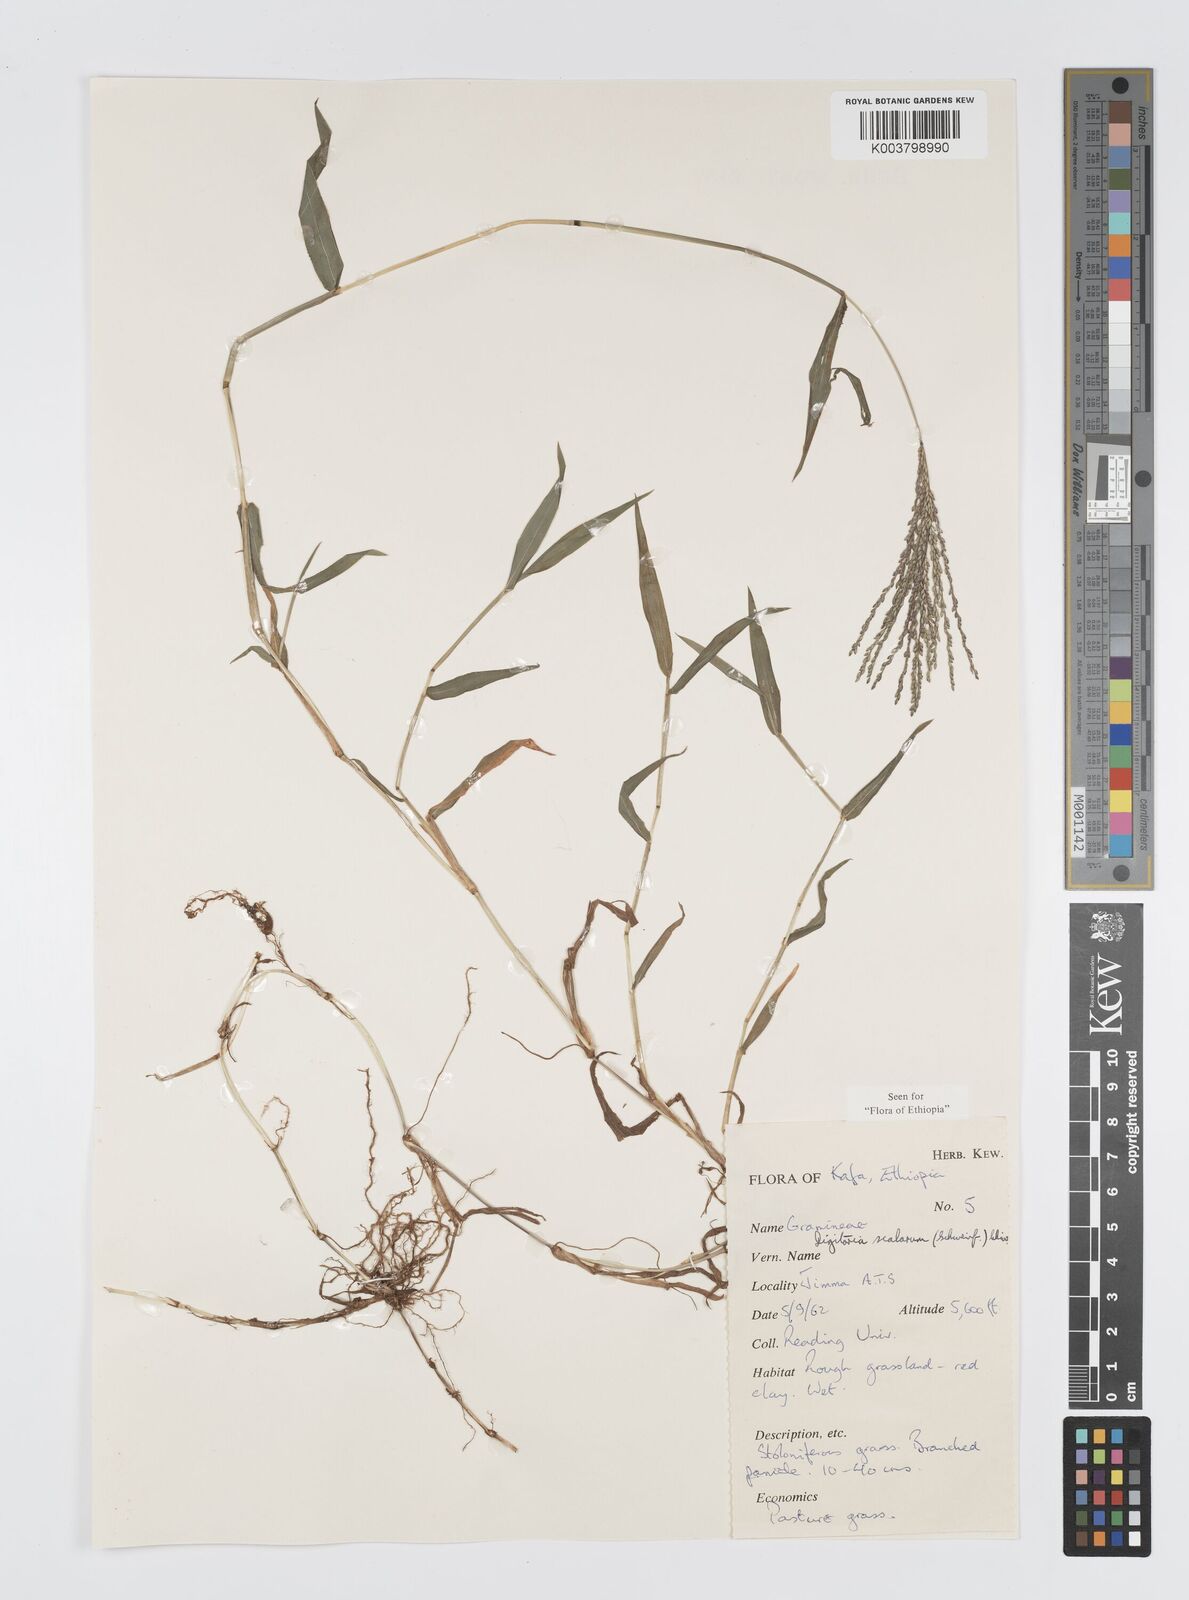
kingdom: Plantae
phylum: Tracheophyta
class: Liliopsida
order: Poales
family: Poaceae
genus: Digitaria
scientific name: Digitaria abyssinica
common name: African couchgrass
